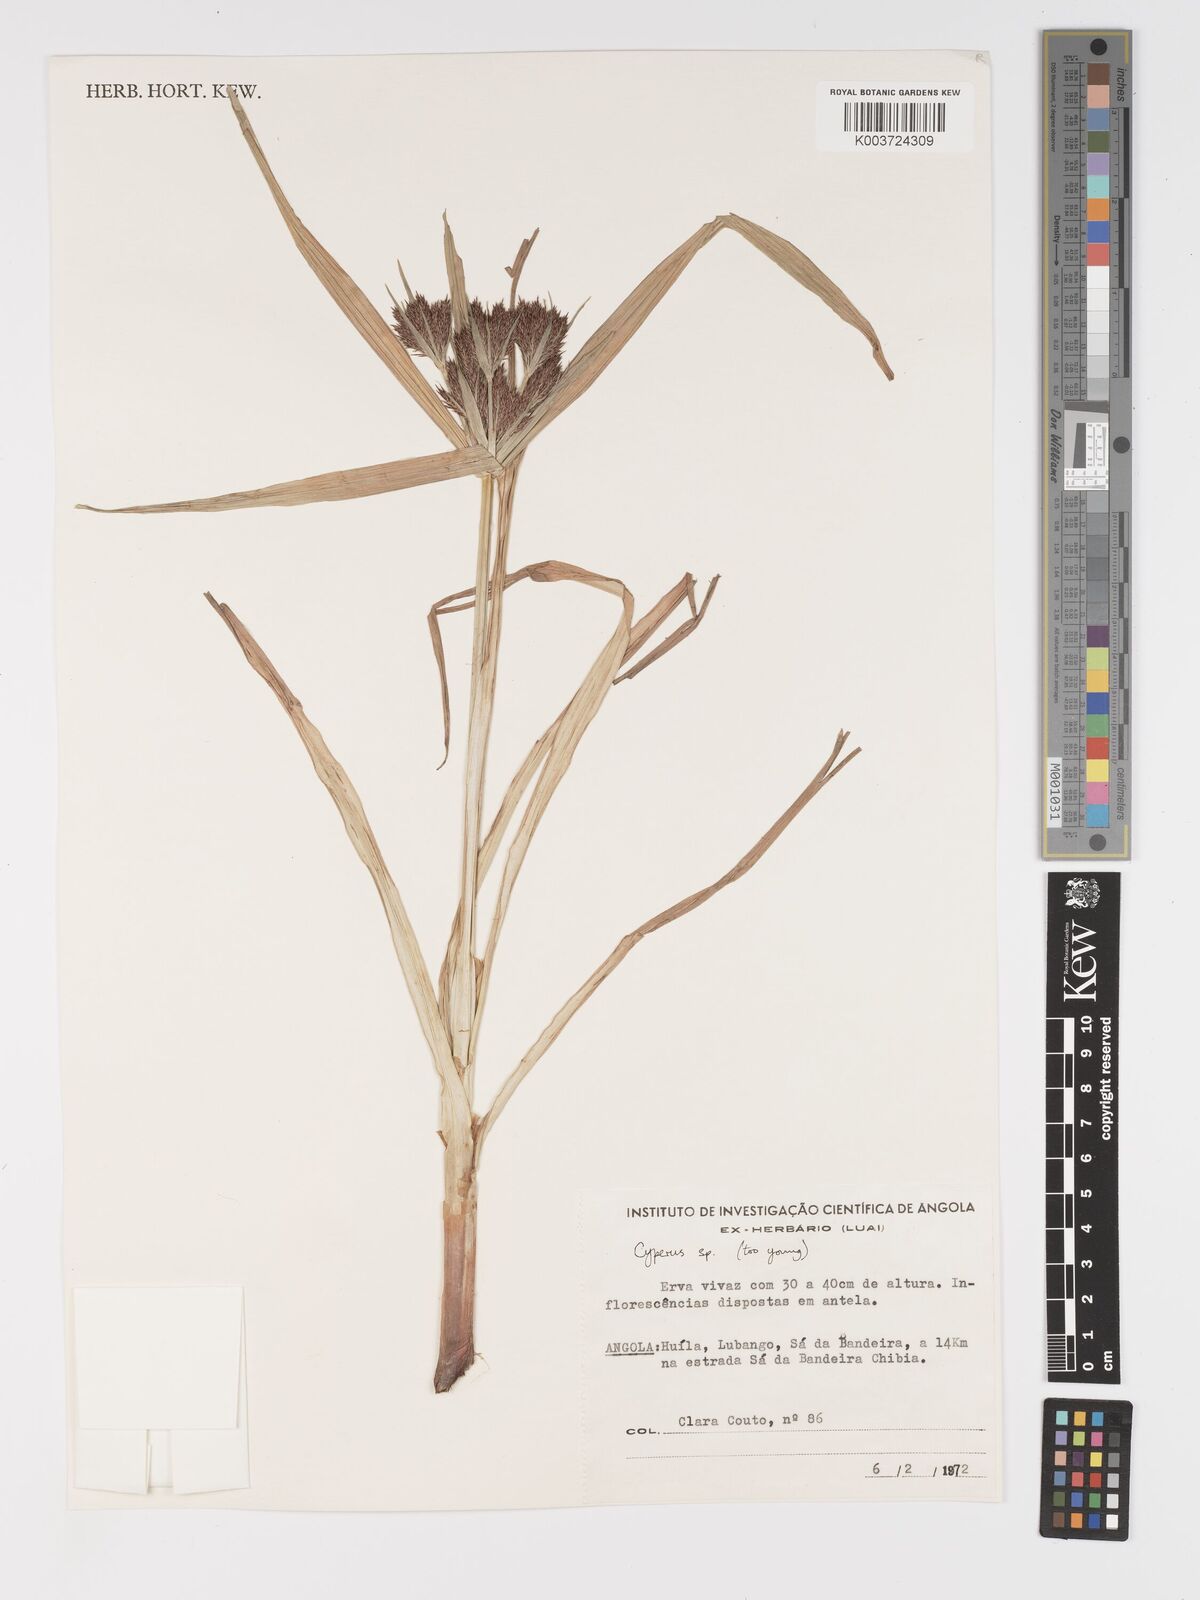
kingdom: Plantae
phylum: Tracheophyta
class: Liliopsida
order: Poales
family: Cyperaceae
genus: Cyperus
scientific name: Cyperus
